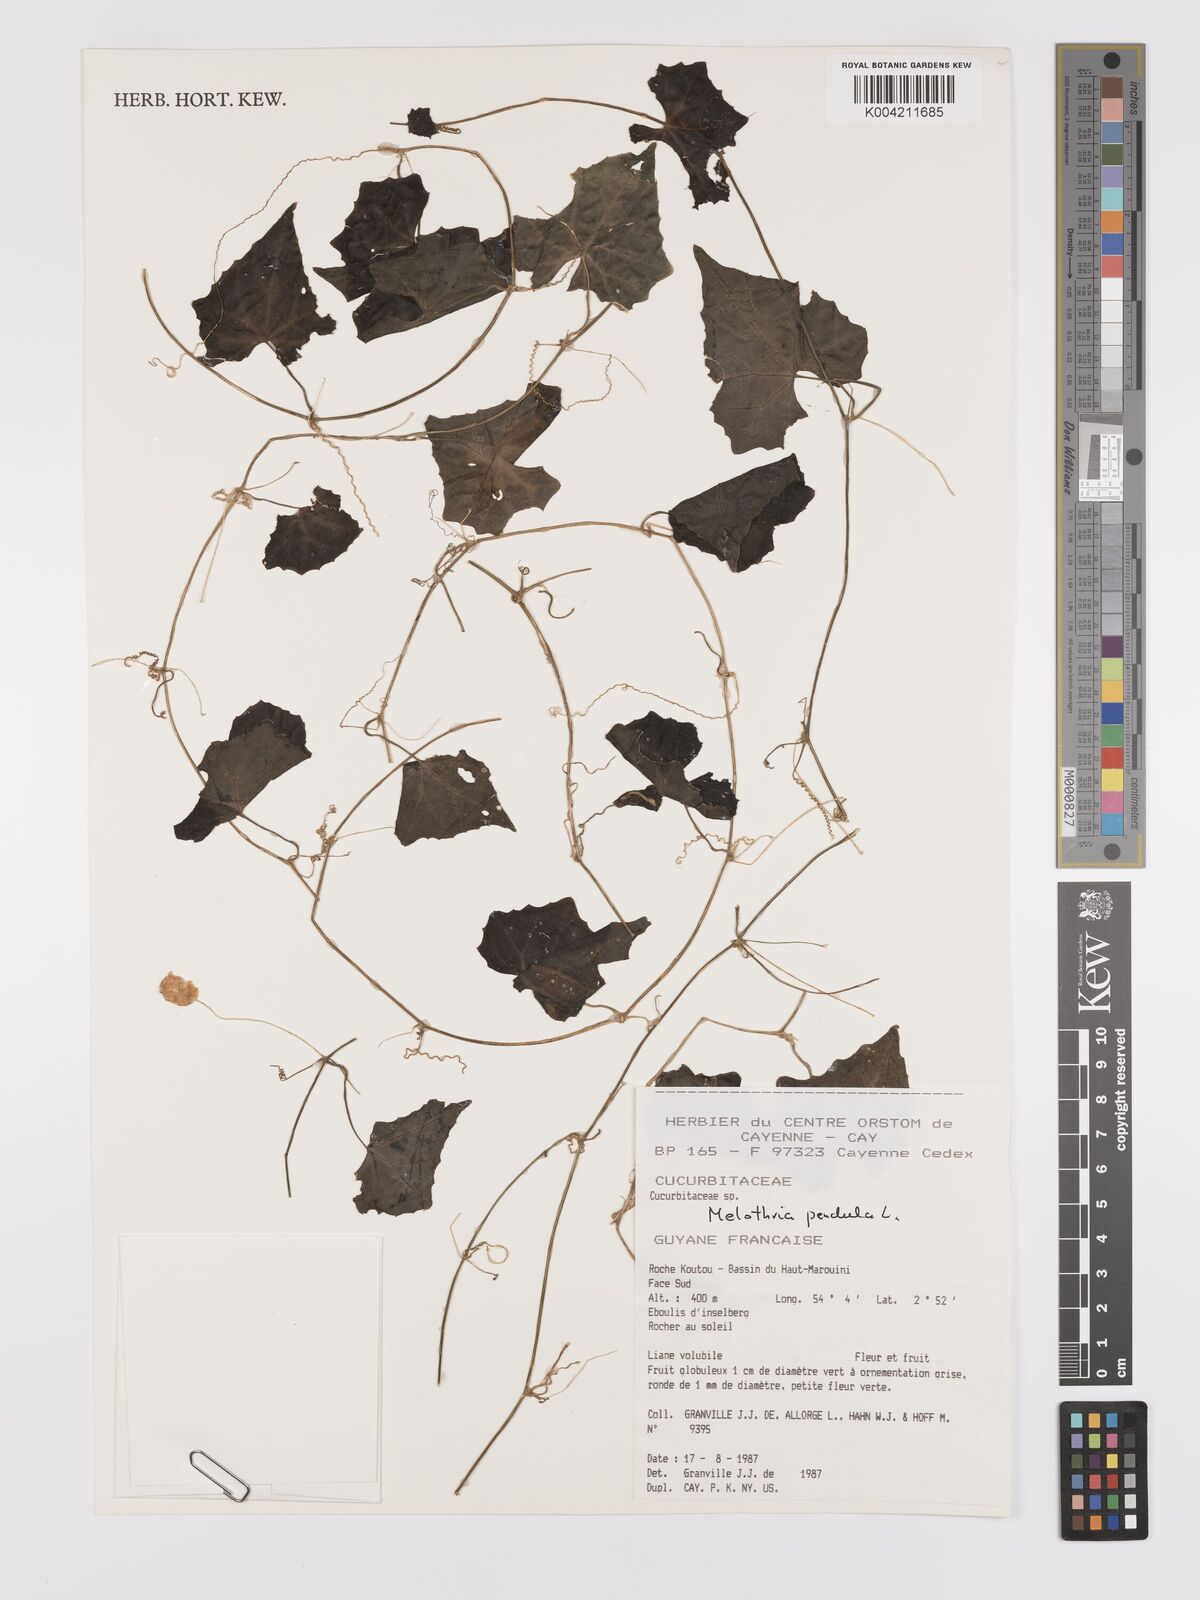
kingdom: Plantae
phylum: Tracheophyta
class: Magnoliopsida
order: Cucurbitales
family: Cucurbitaceae
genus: Melothria
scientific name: Melothria pendula
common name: Creeping-cucumber
